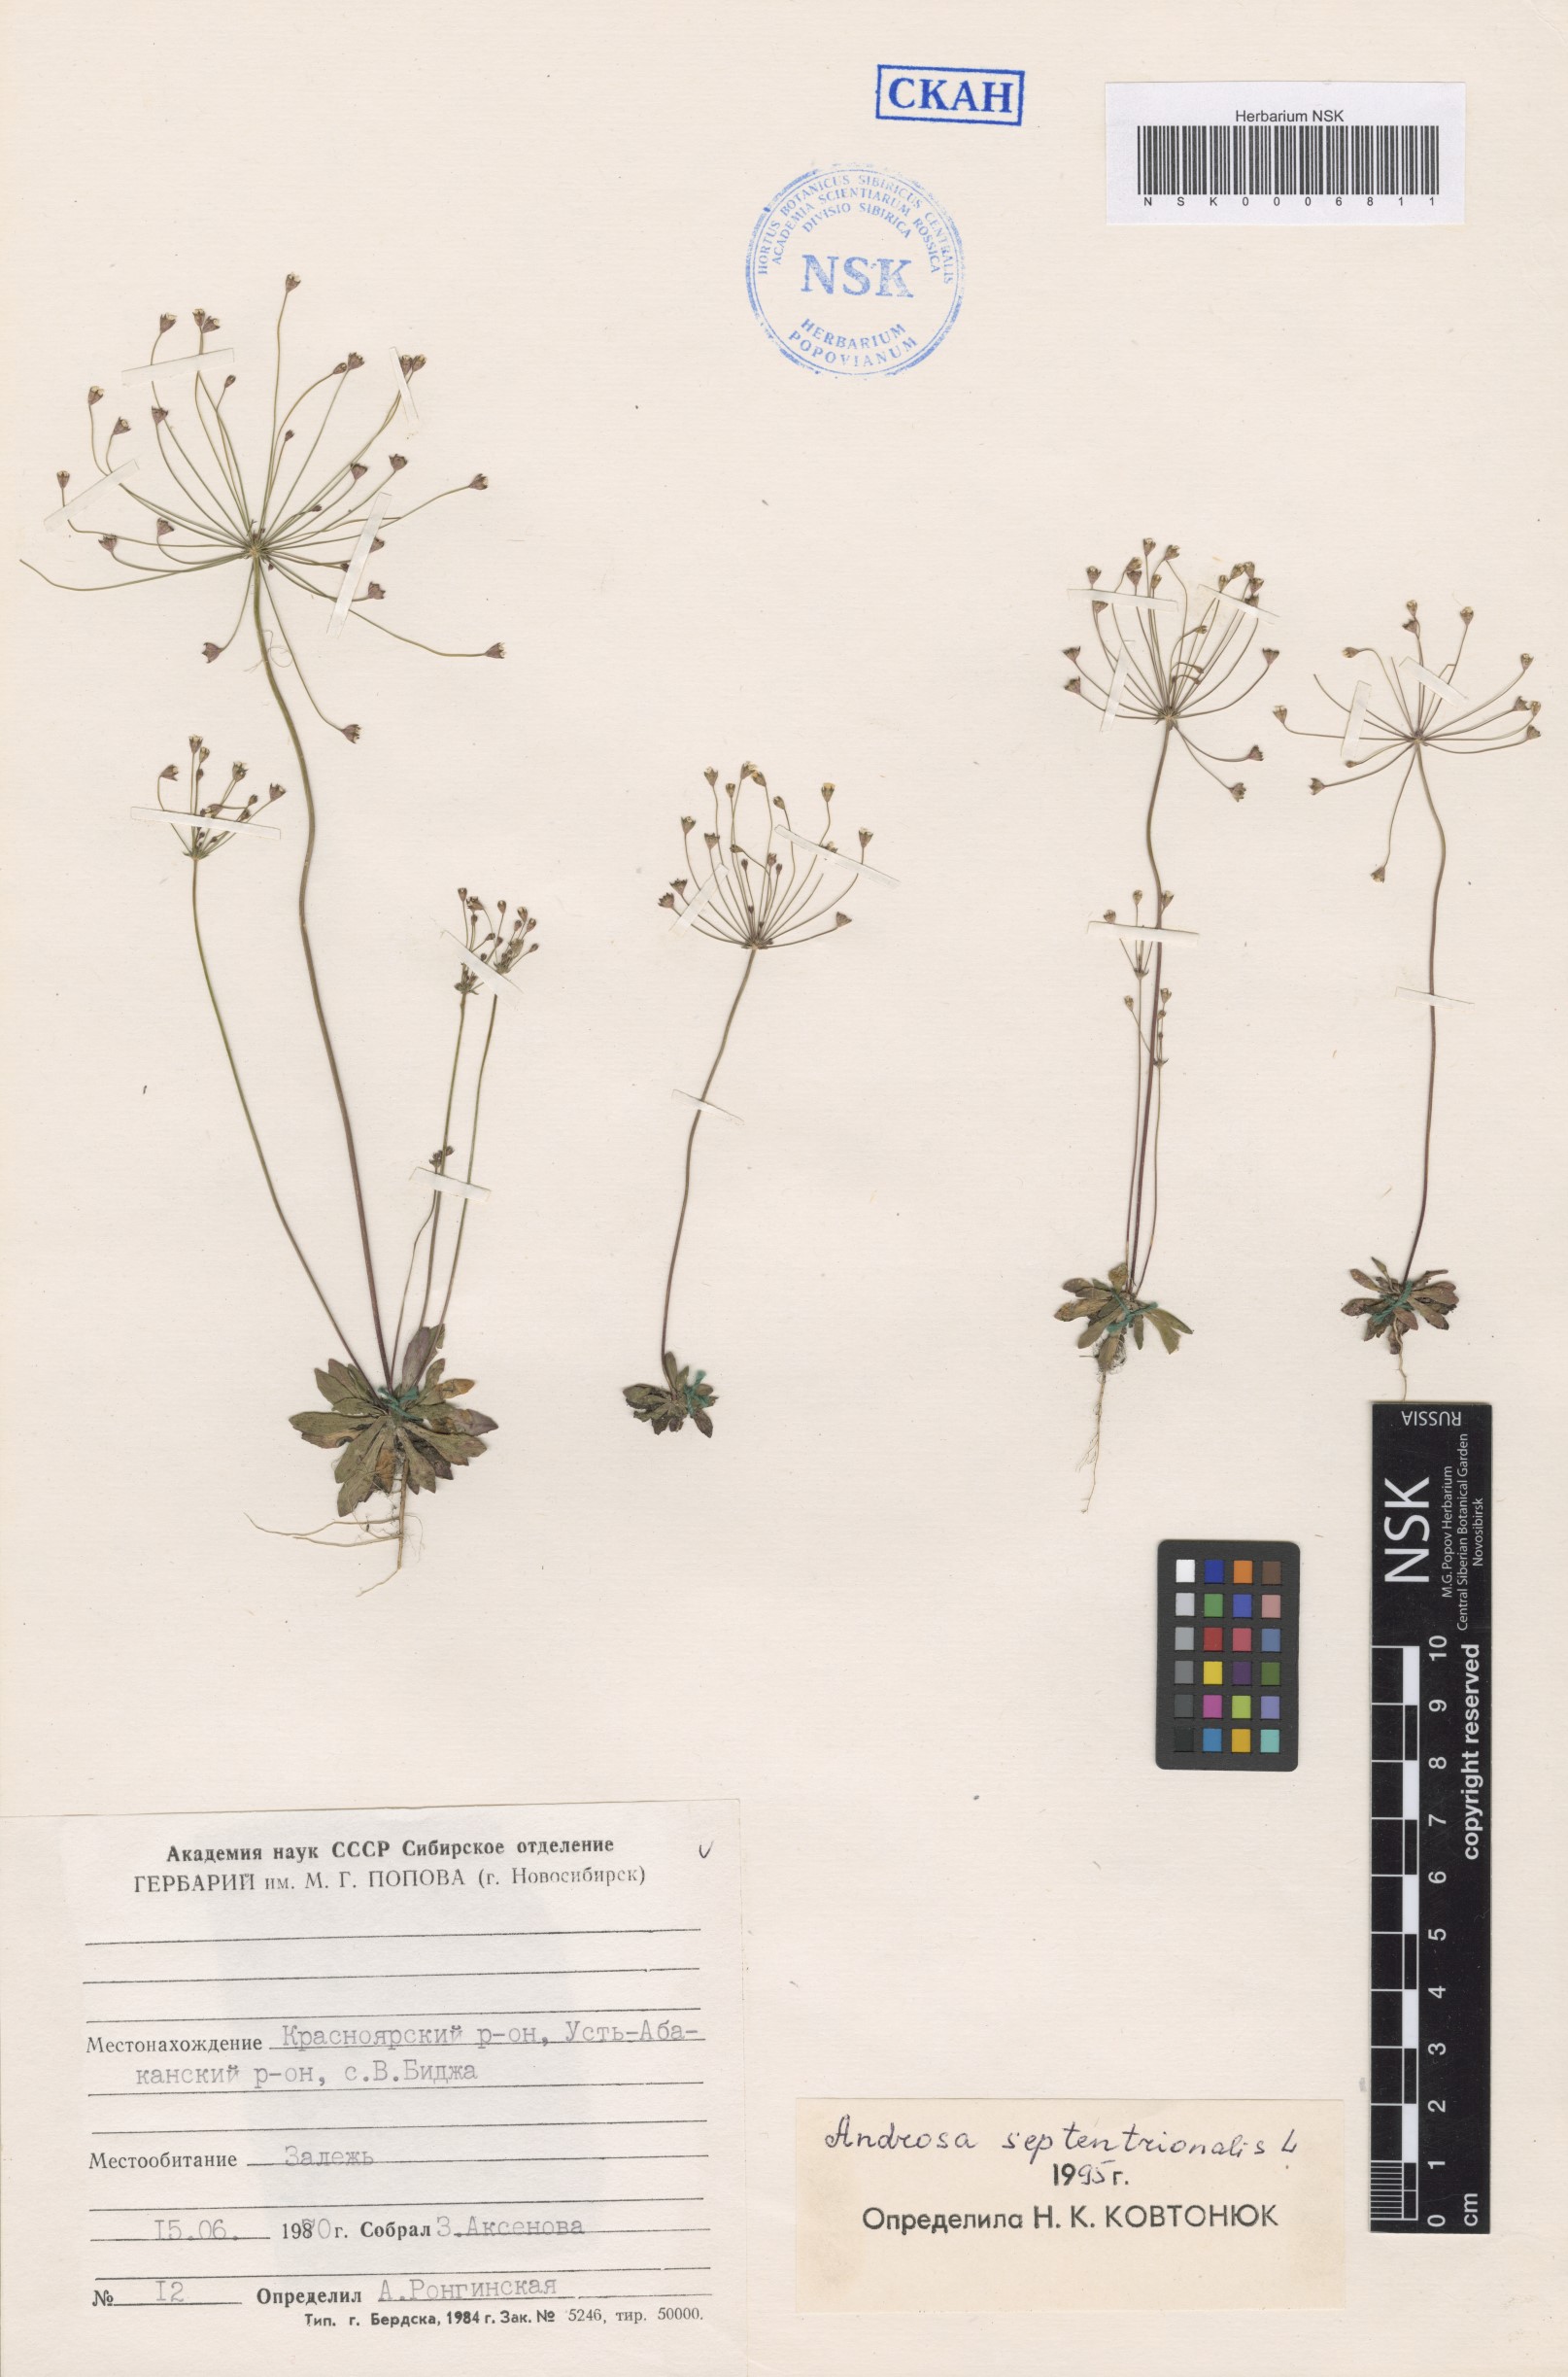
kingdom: Plantae
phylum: Tracheophyta
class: Magnoliopsida
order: Ericales
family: Primulaceae
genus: Androsace
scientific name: Androsace septentrionalis
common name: Hairy northern fairy-candelabra
